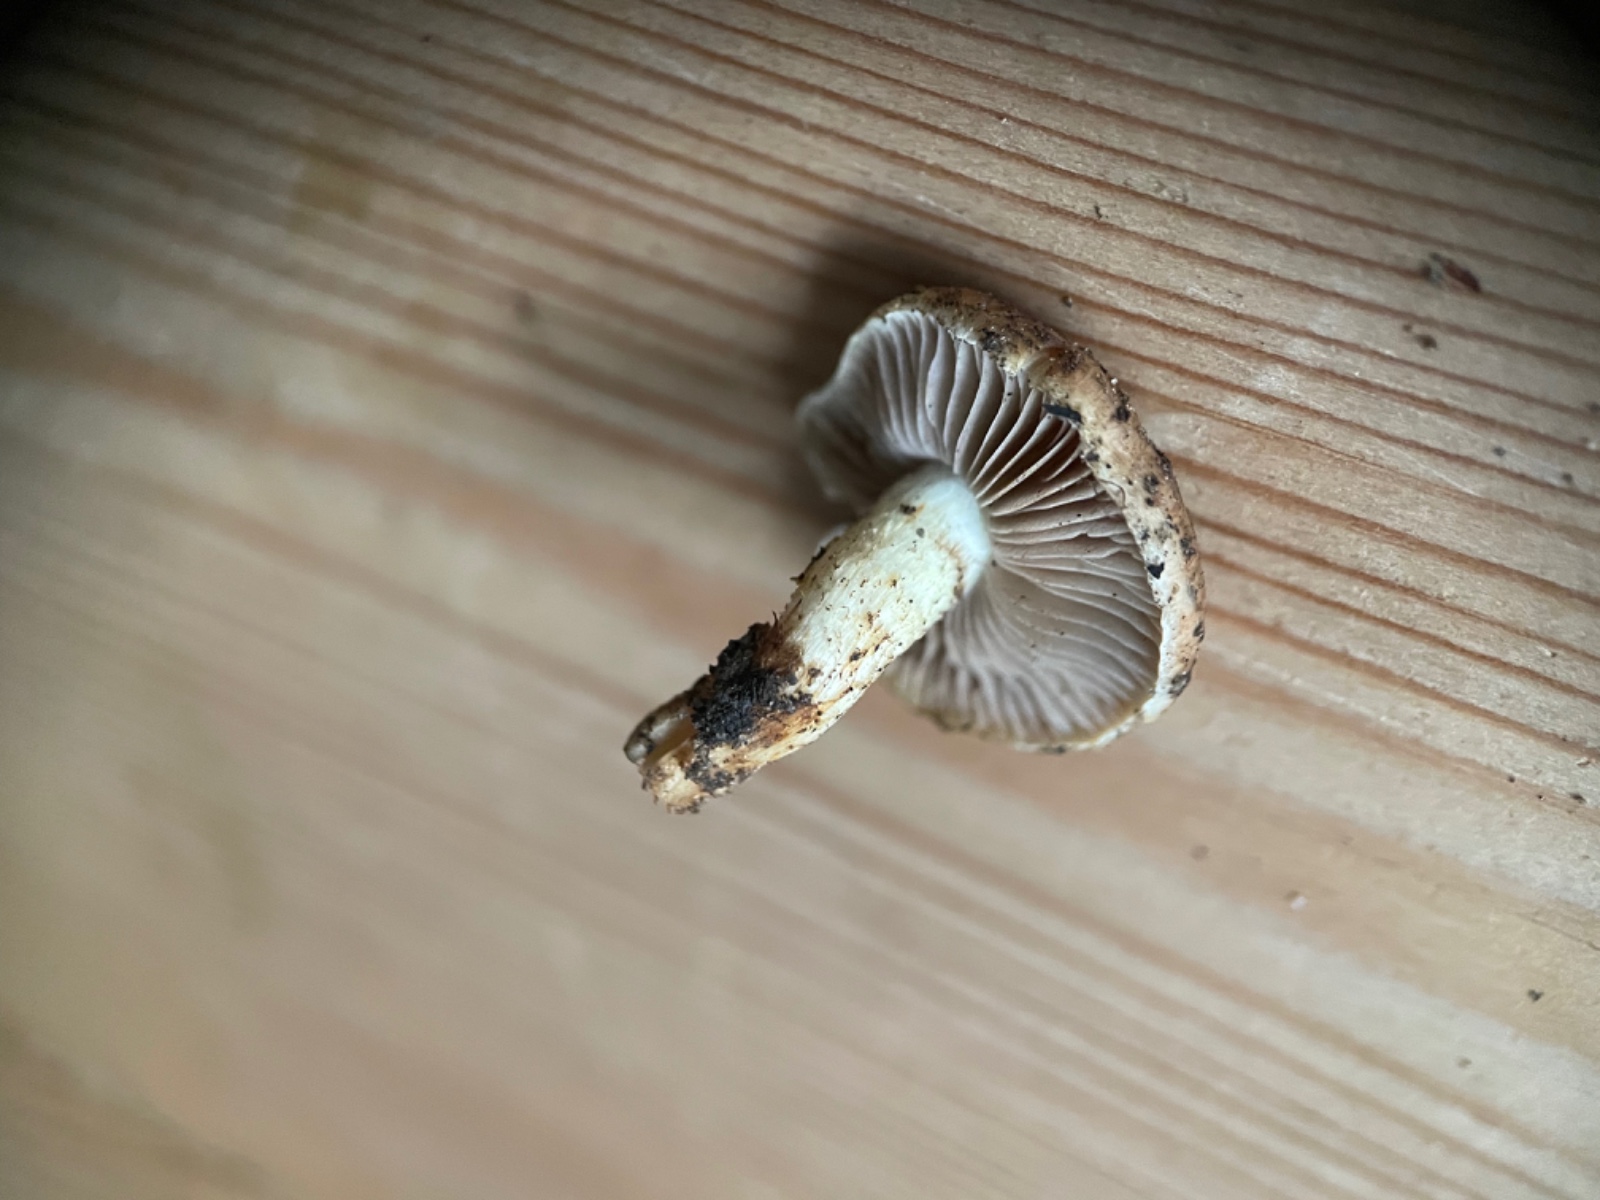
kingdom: Fungi
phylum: Basidiomycota
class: Agaricomycetes
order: Agaricales
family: Strophariaceae
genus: Pholiota
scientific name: Pholiota carbonaria
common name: kul-skælhat
